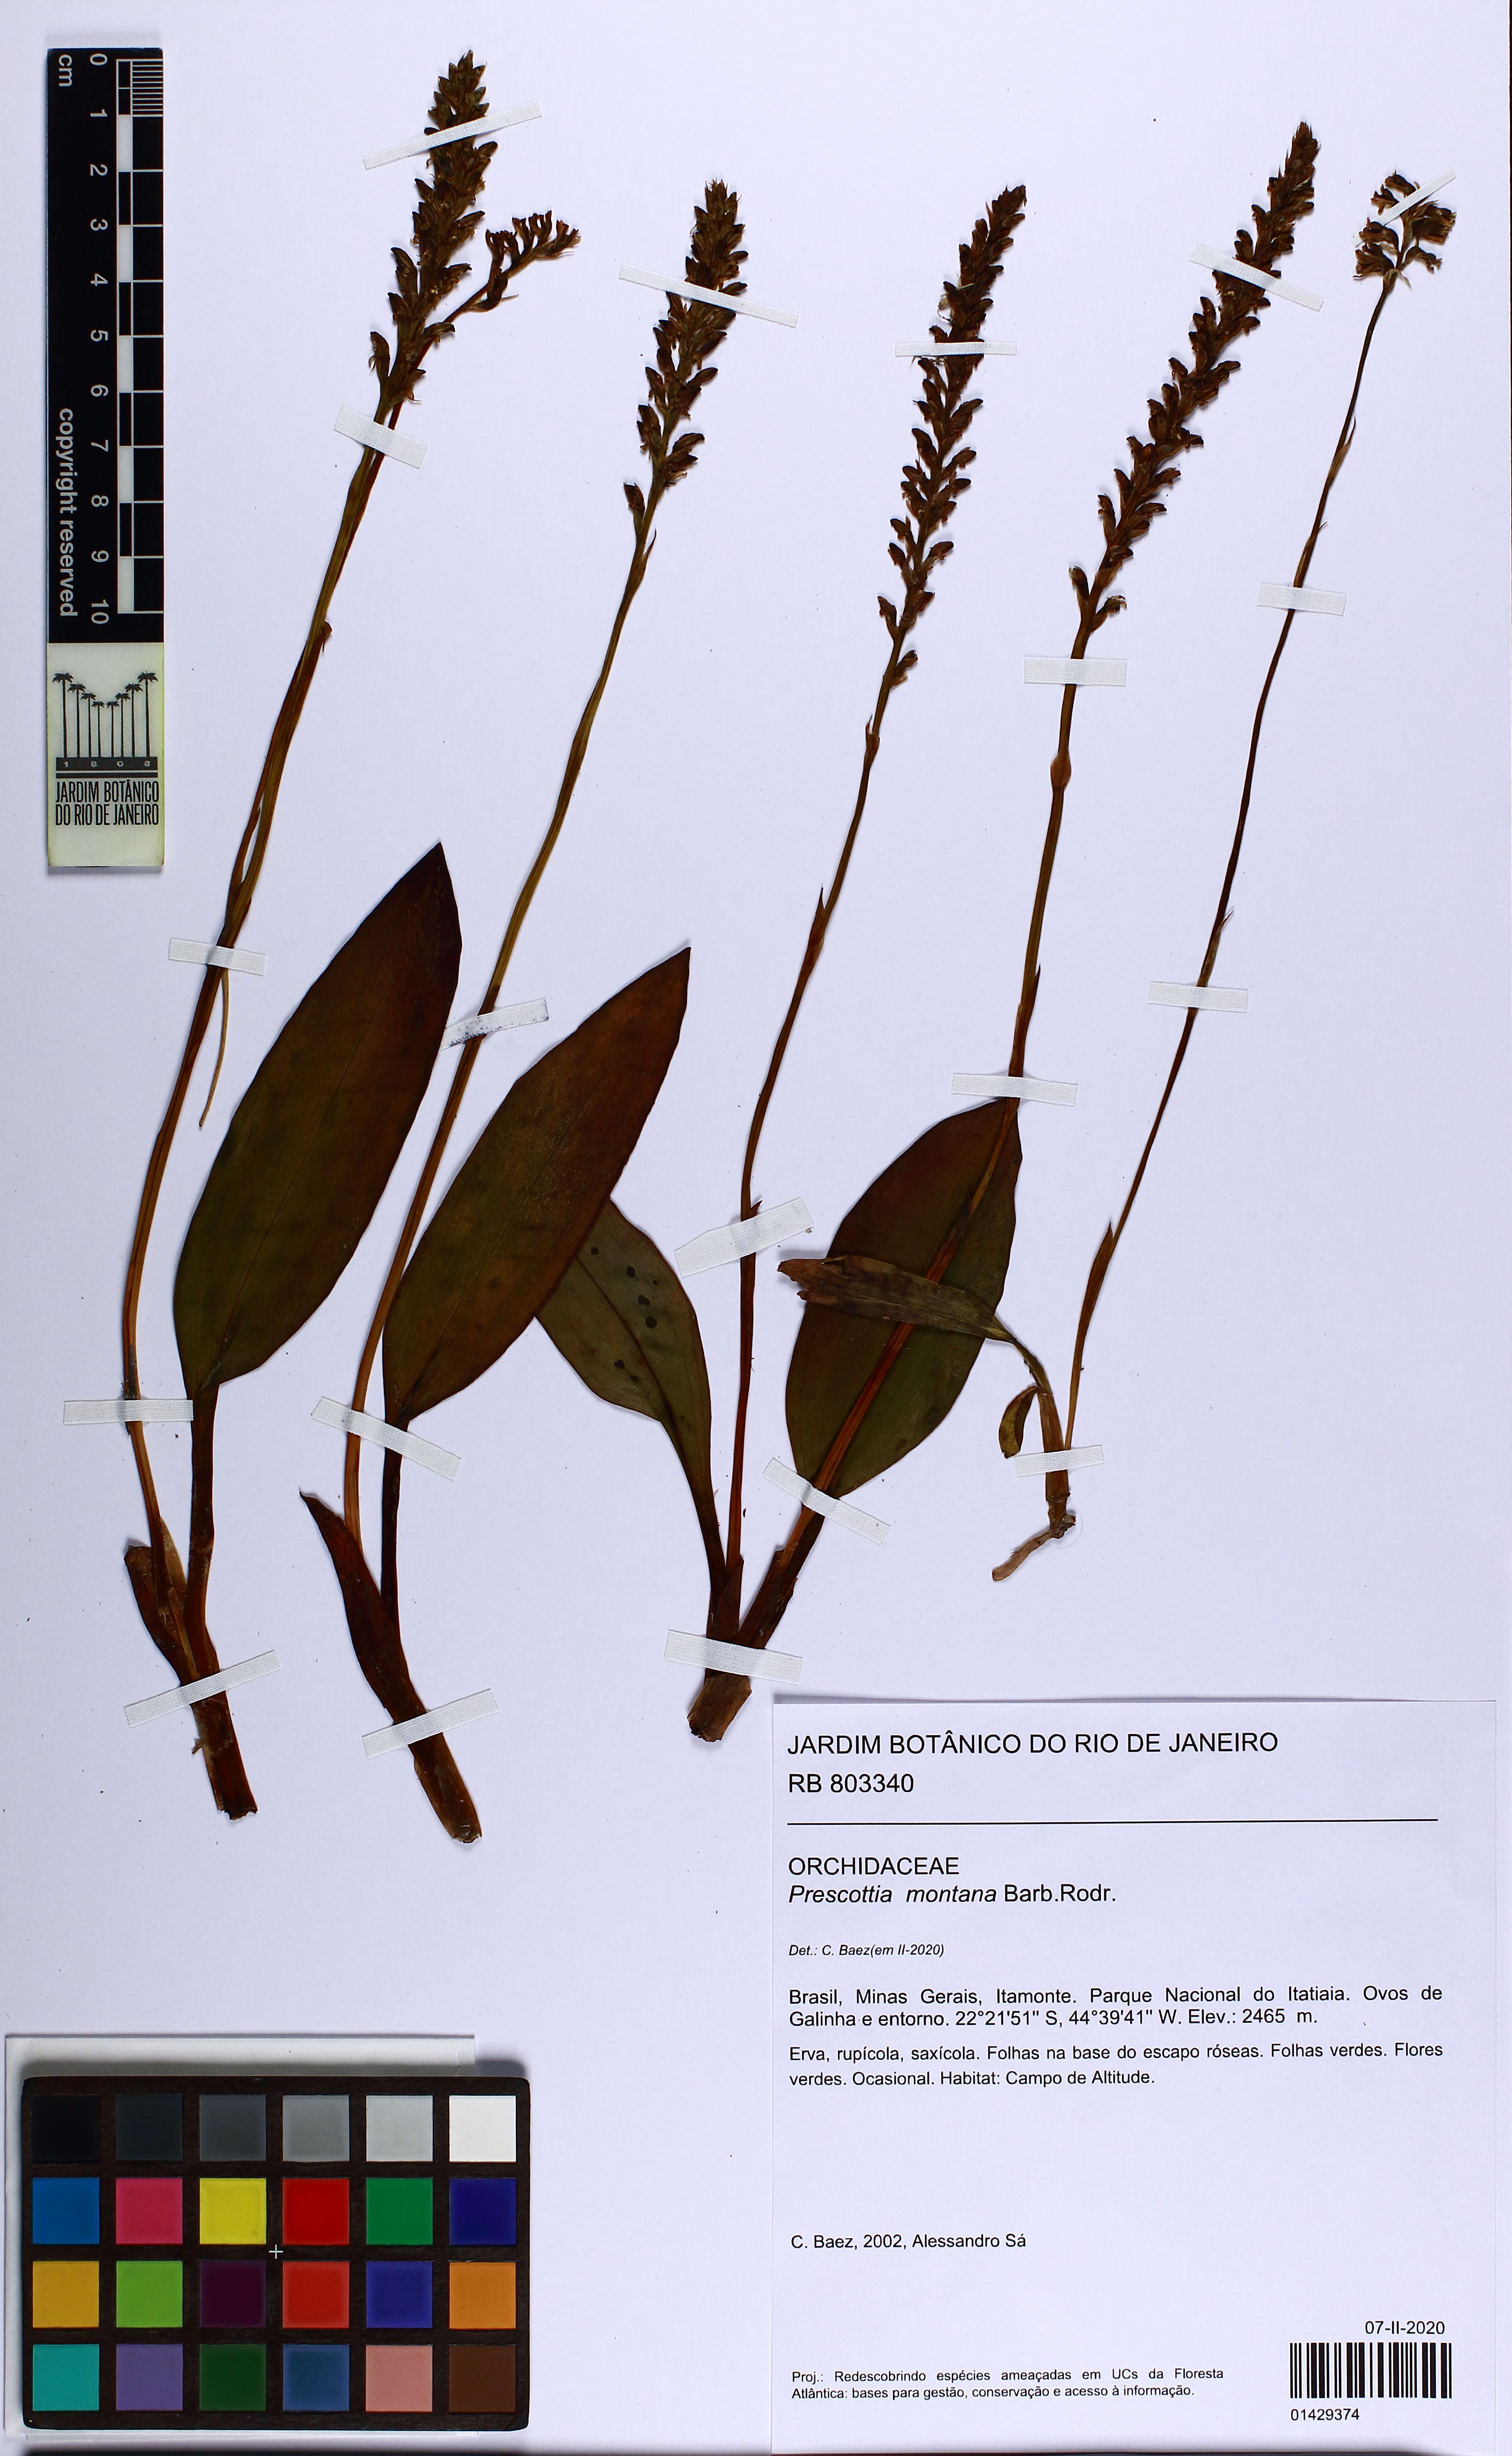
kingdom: Plantae
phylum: Tracheophyta
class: Liliopsida
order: Asparagales
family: Orchidaceae
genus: Prescottia
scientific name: Prescottia montana
